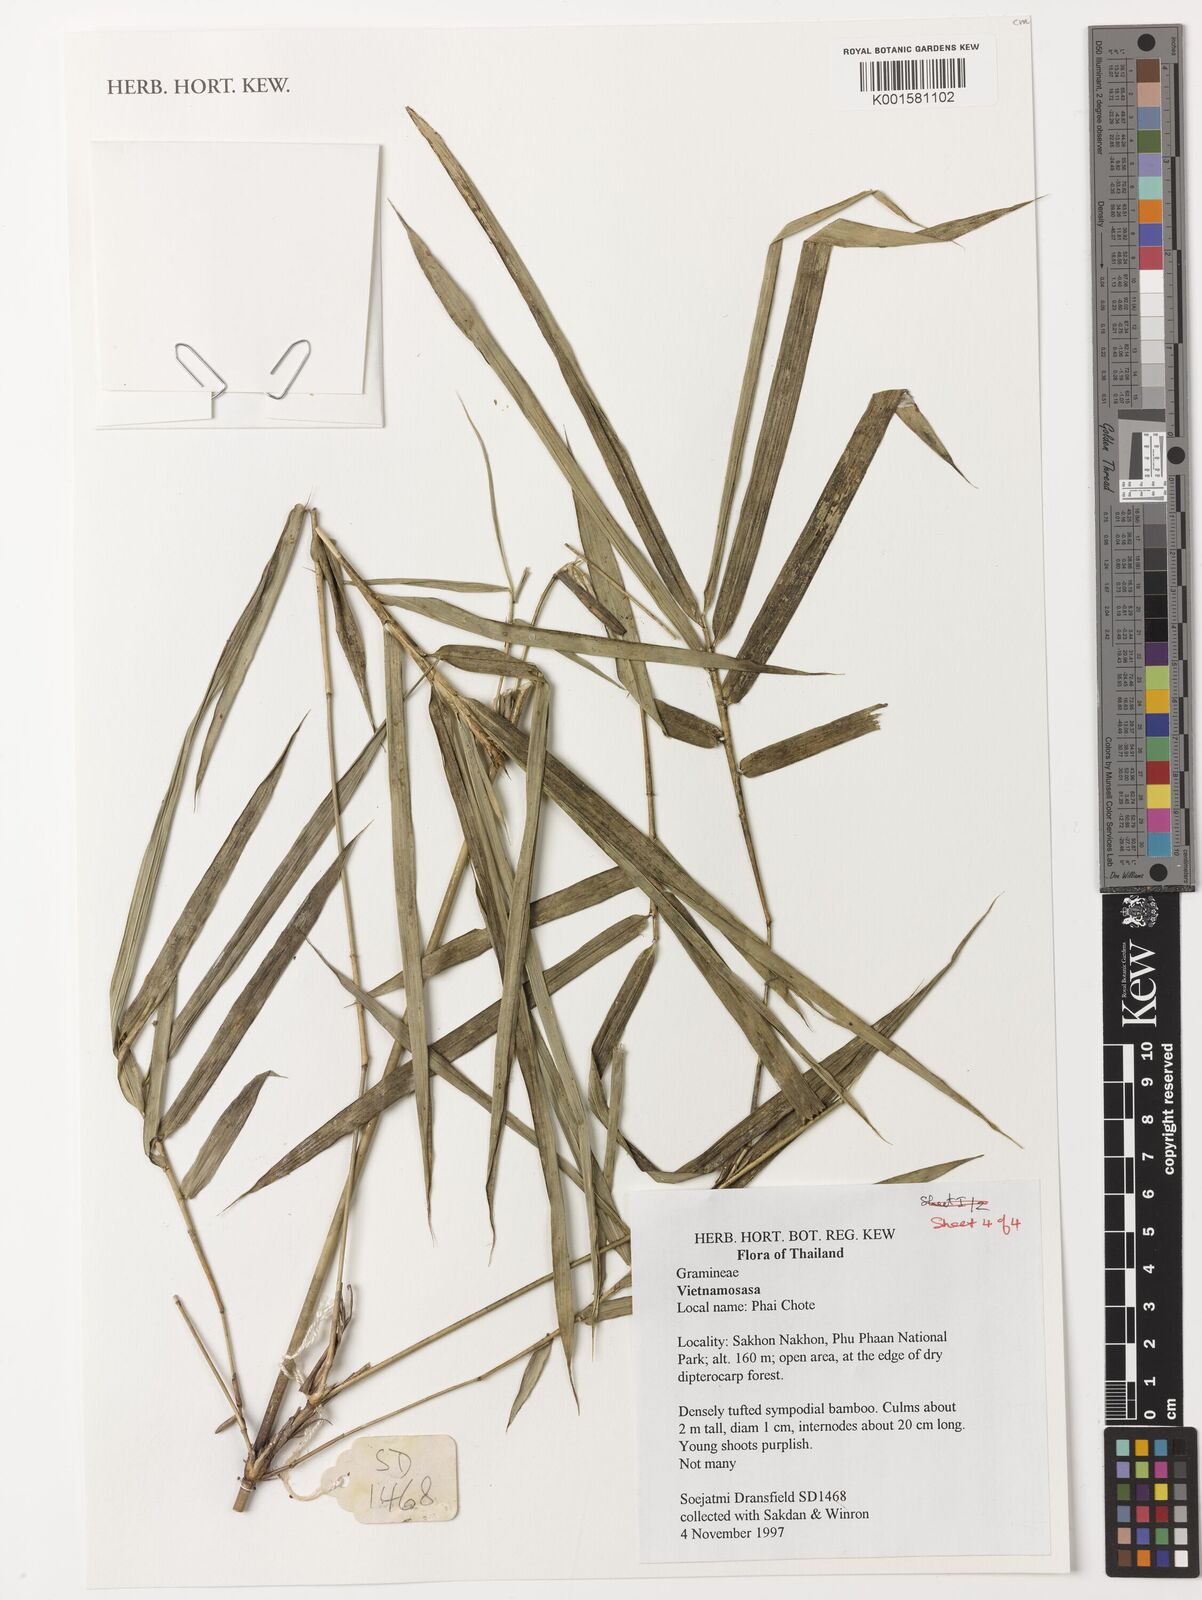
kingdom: Plantae
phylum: Tracheophyta
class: Liliopsida
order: Poales
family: Poaceae
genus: Vietnamosasa
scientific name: Vietnamosasa
